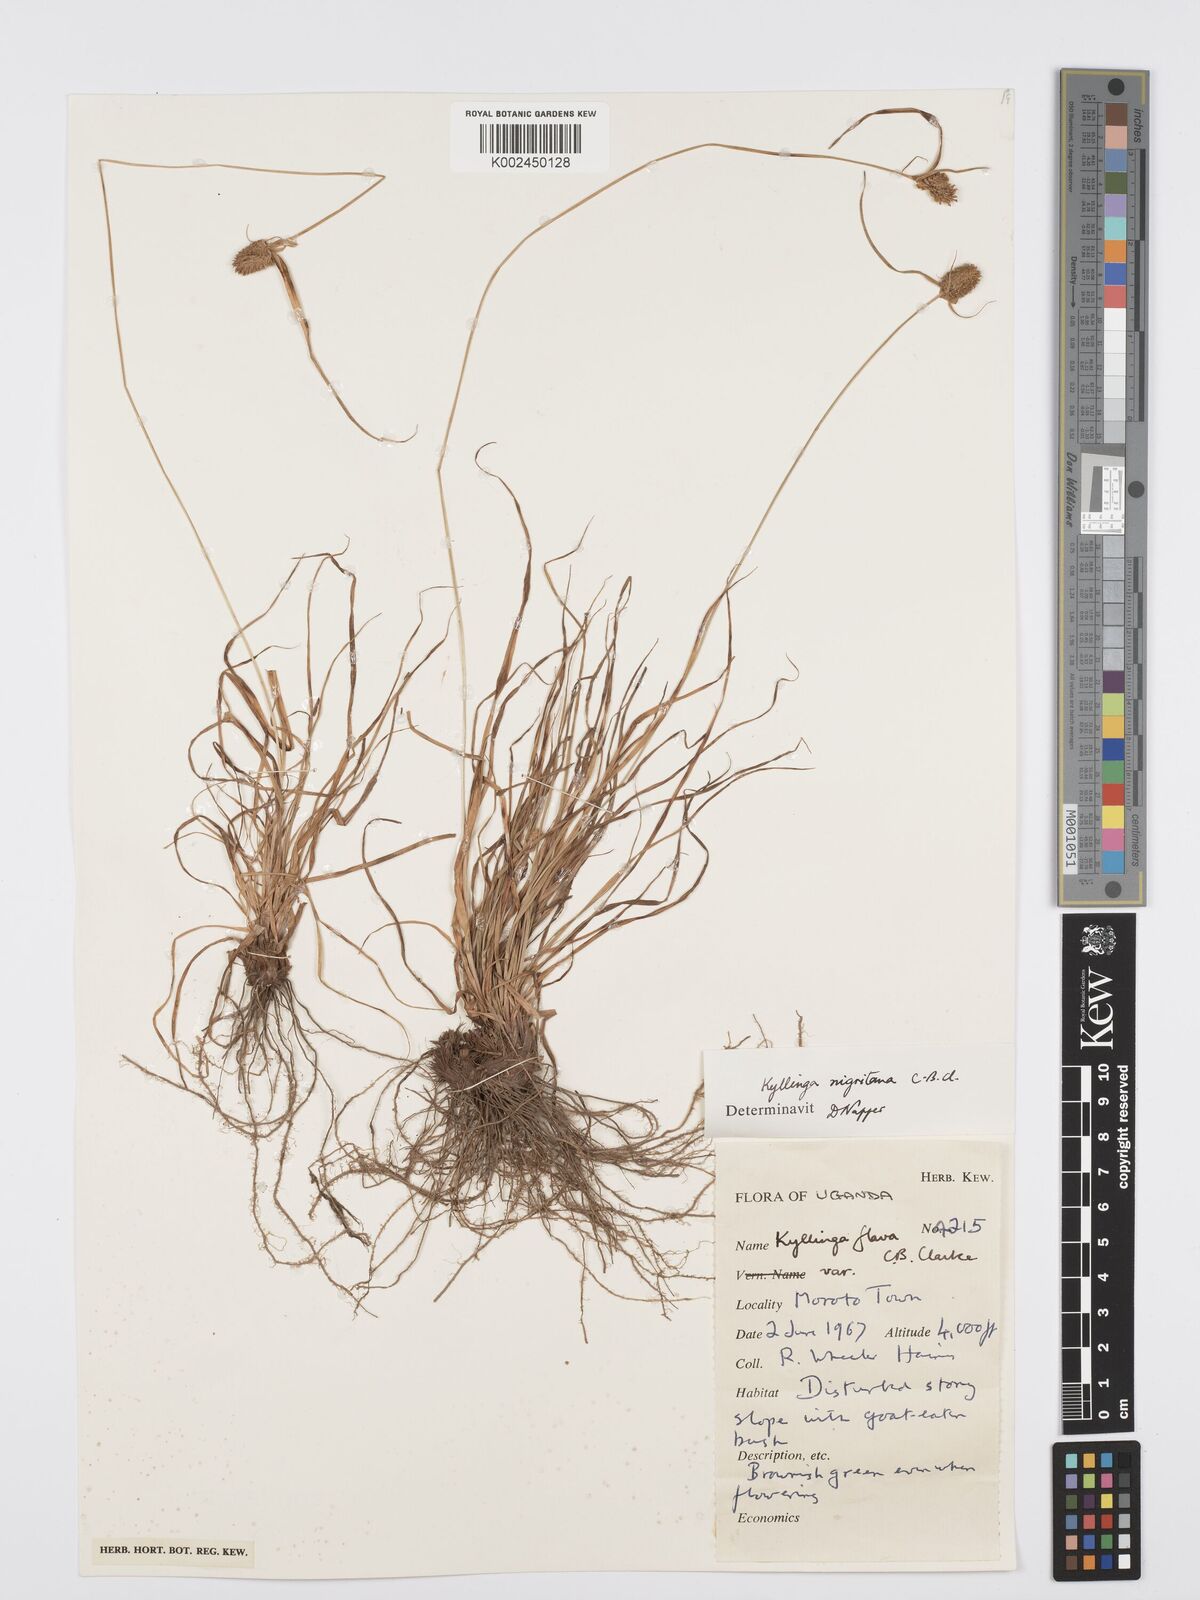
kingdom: Plantae
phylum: Tracheophyta
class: Liliopsida
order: Poales
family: Cyperaceae
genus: Cyperus
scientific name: Cyperus
